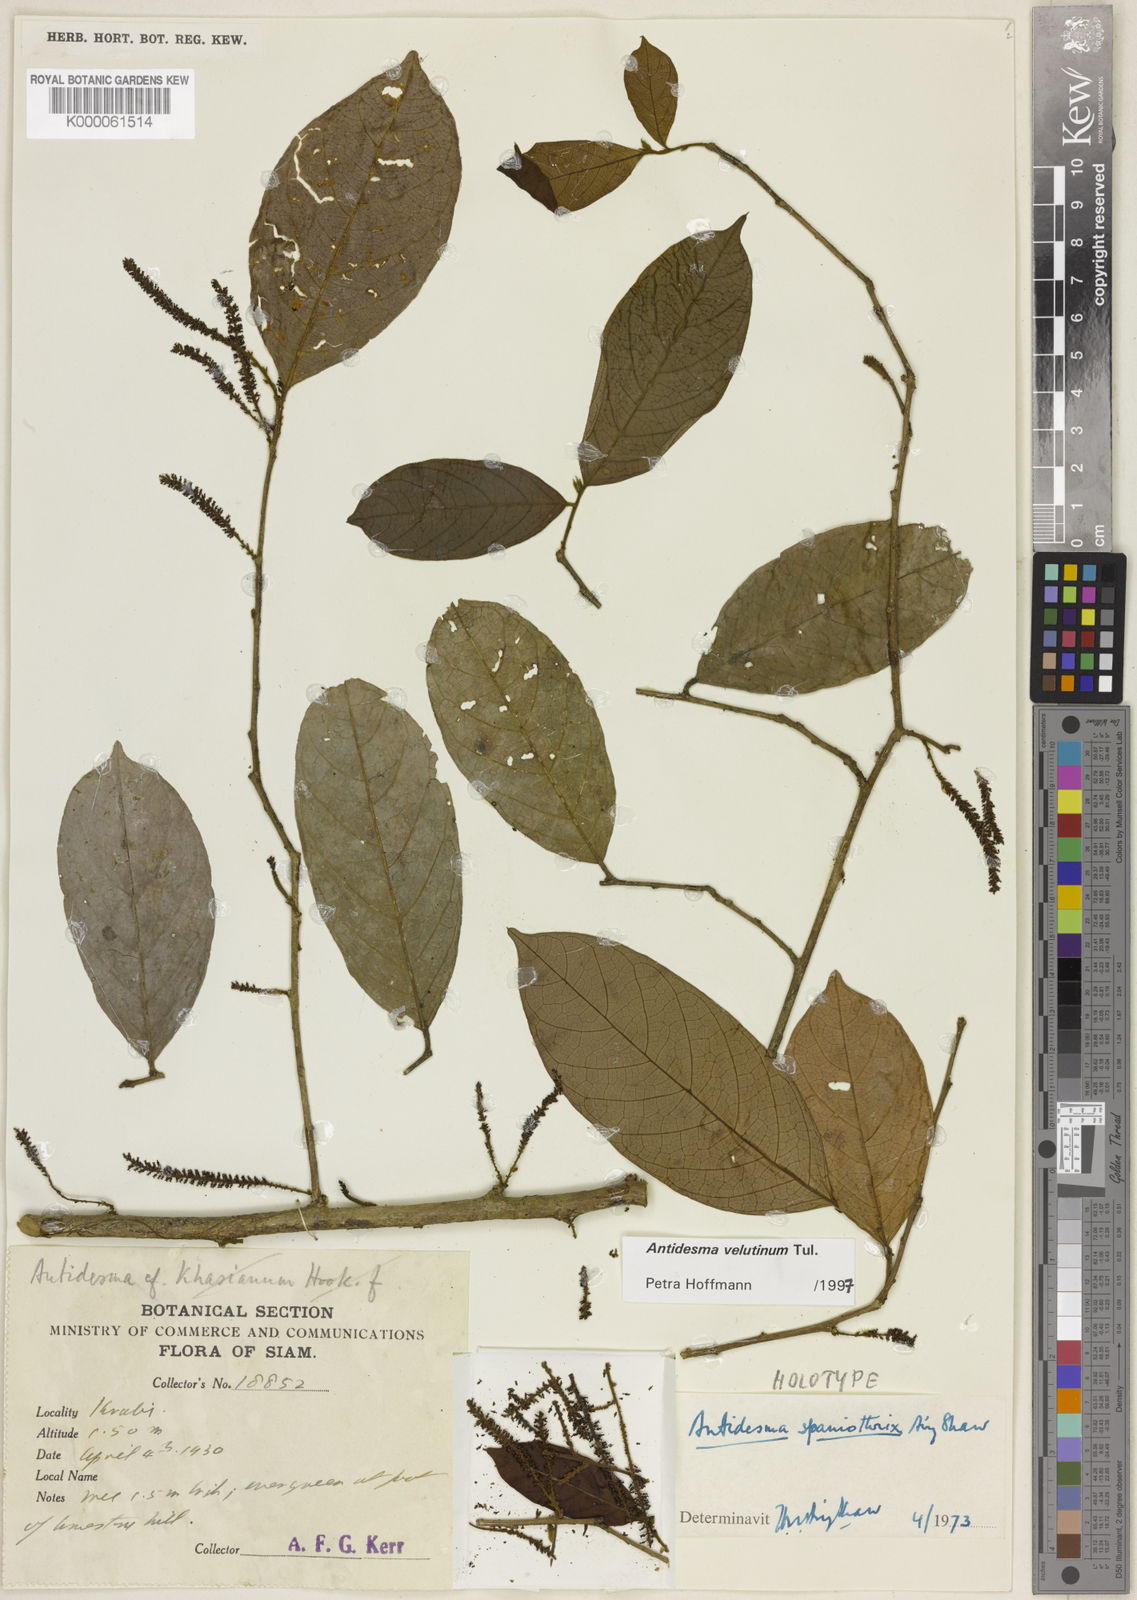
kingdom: Plantae
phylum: Tracheophyta
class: Magnoliopsida
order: Malpighiales
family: Phyllanthaceae
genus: Antidesma
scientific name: Antidesma velutinum
